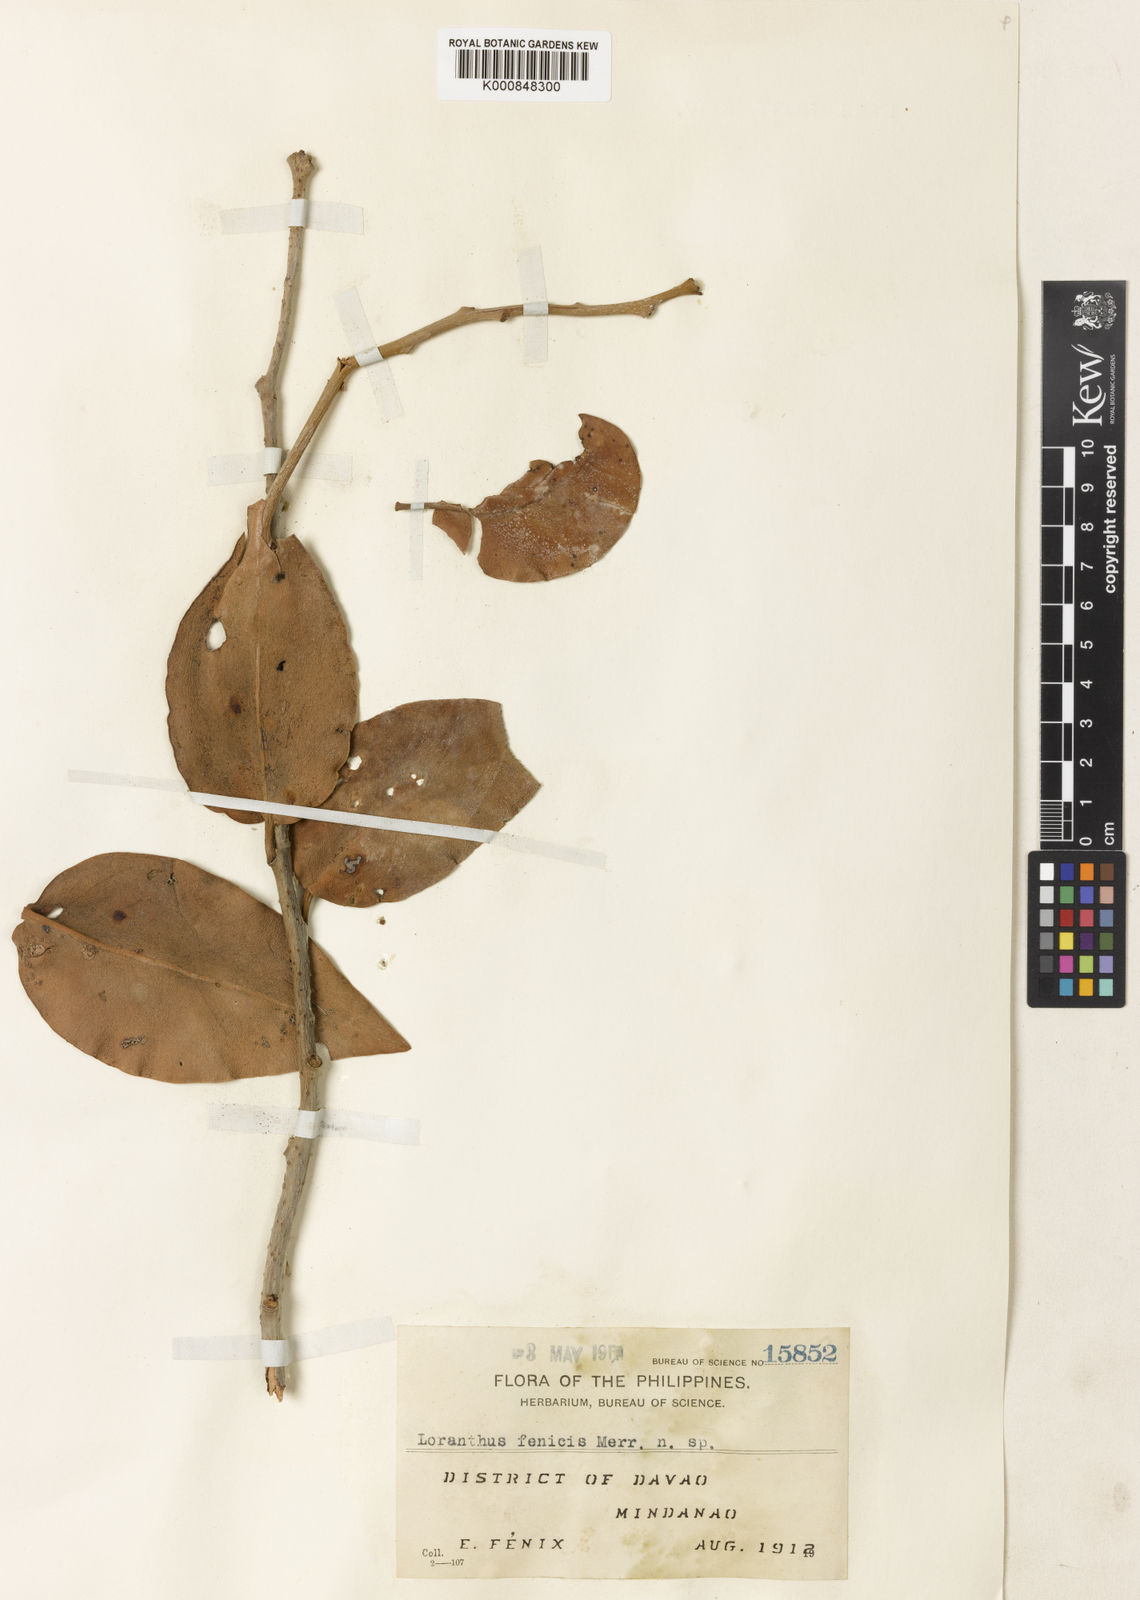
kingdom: Plantae
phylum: Tracheophyta
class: Magnoliopsida
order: Santalales
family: Loranthaceae
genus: Amyema
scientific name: Amyema
